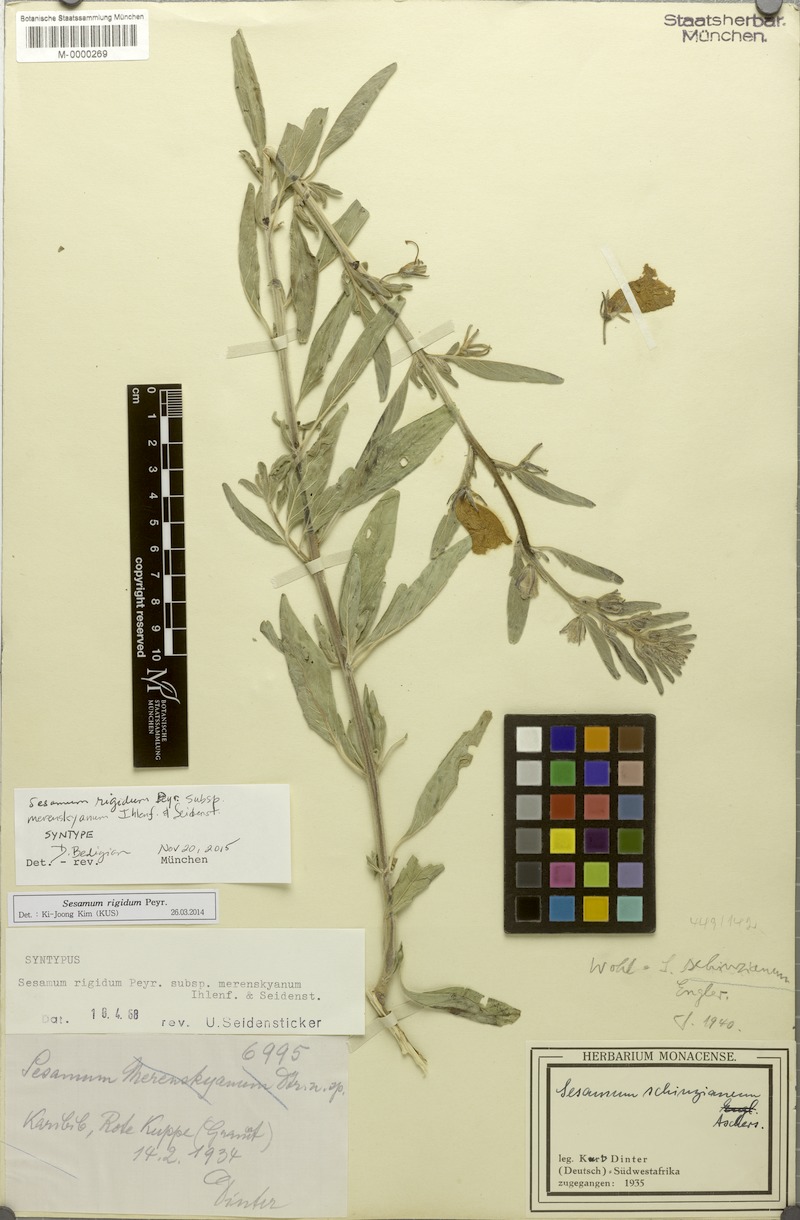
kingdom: Plantae
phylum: Tracheophyta
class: Magnoliopsida
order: Lamiales
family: Pedaliaceae
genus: Sesamum
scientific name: Sesamum rigidum
